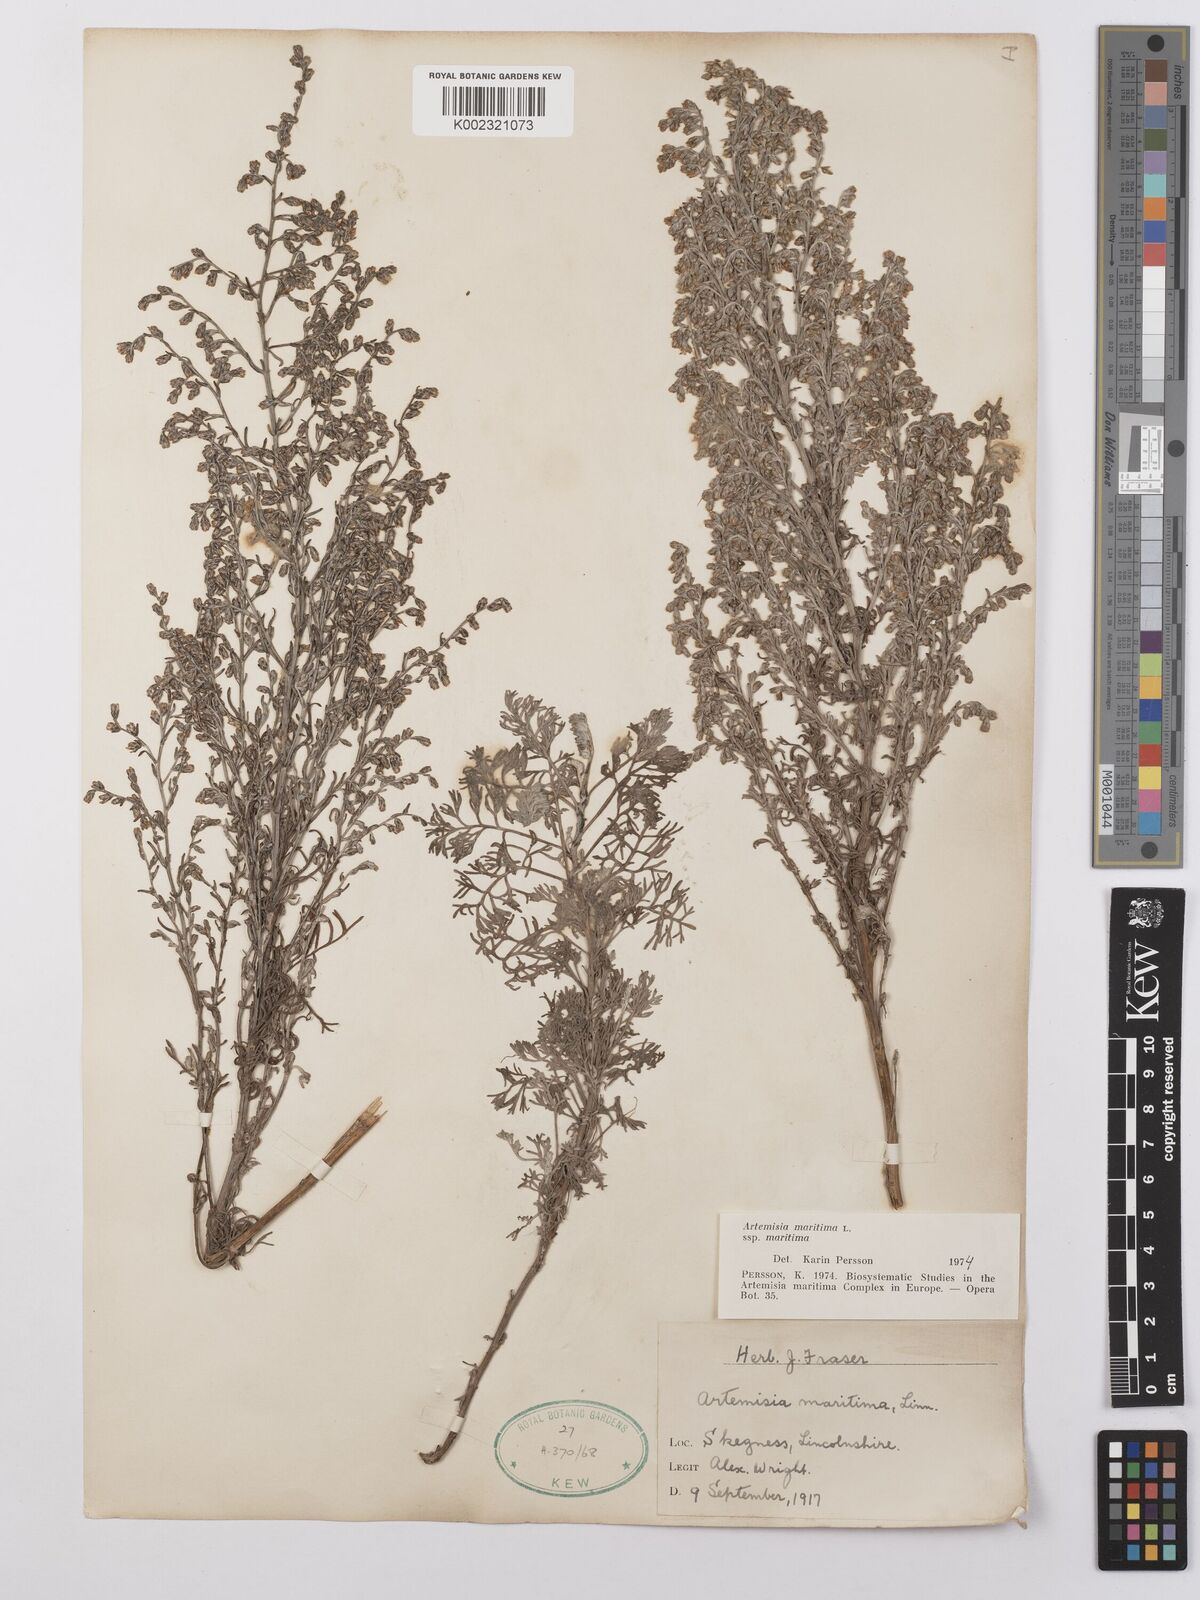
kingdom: Plantae
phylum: Tracheophyta
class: Magnoliopsida
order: Asterales
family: Asteraceae
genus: Artemisia
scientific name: Artemisia maritima
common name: Wormseed
